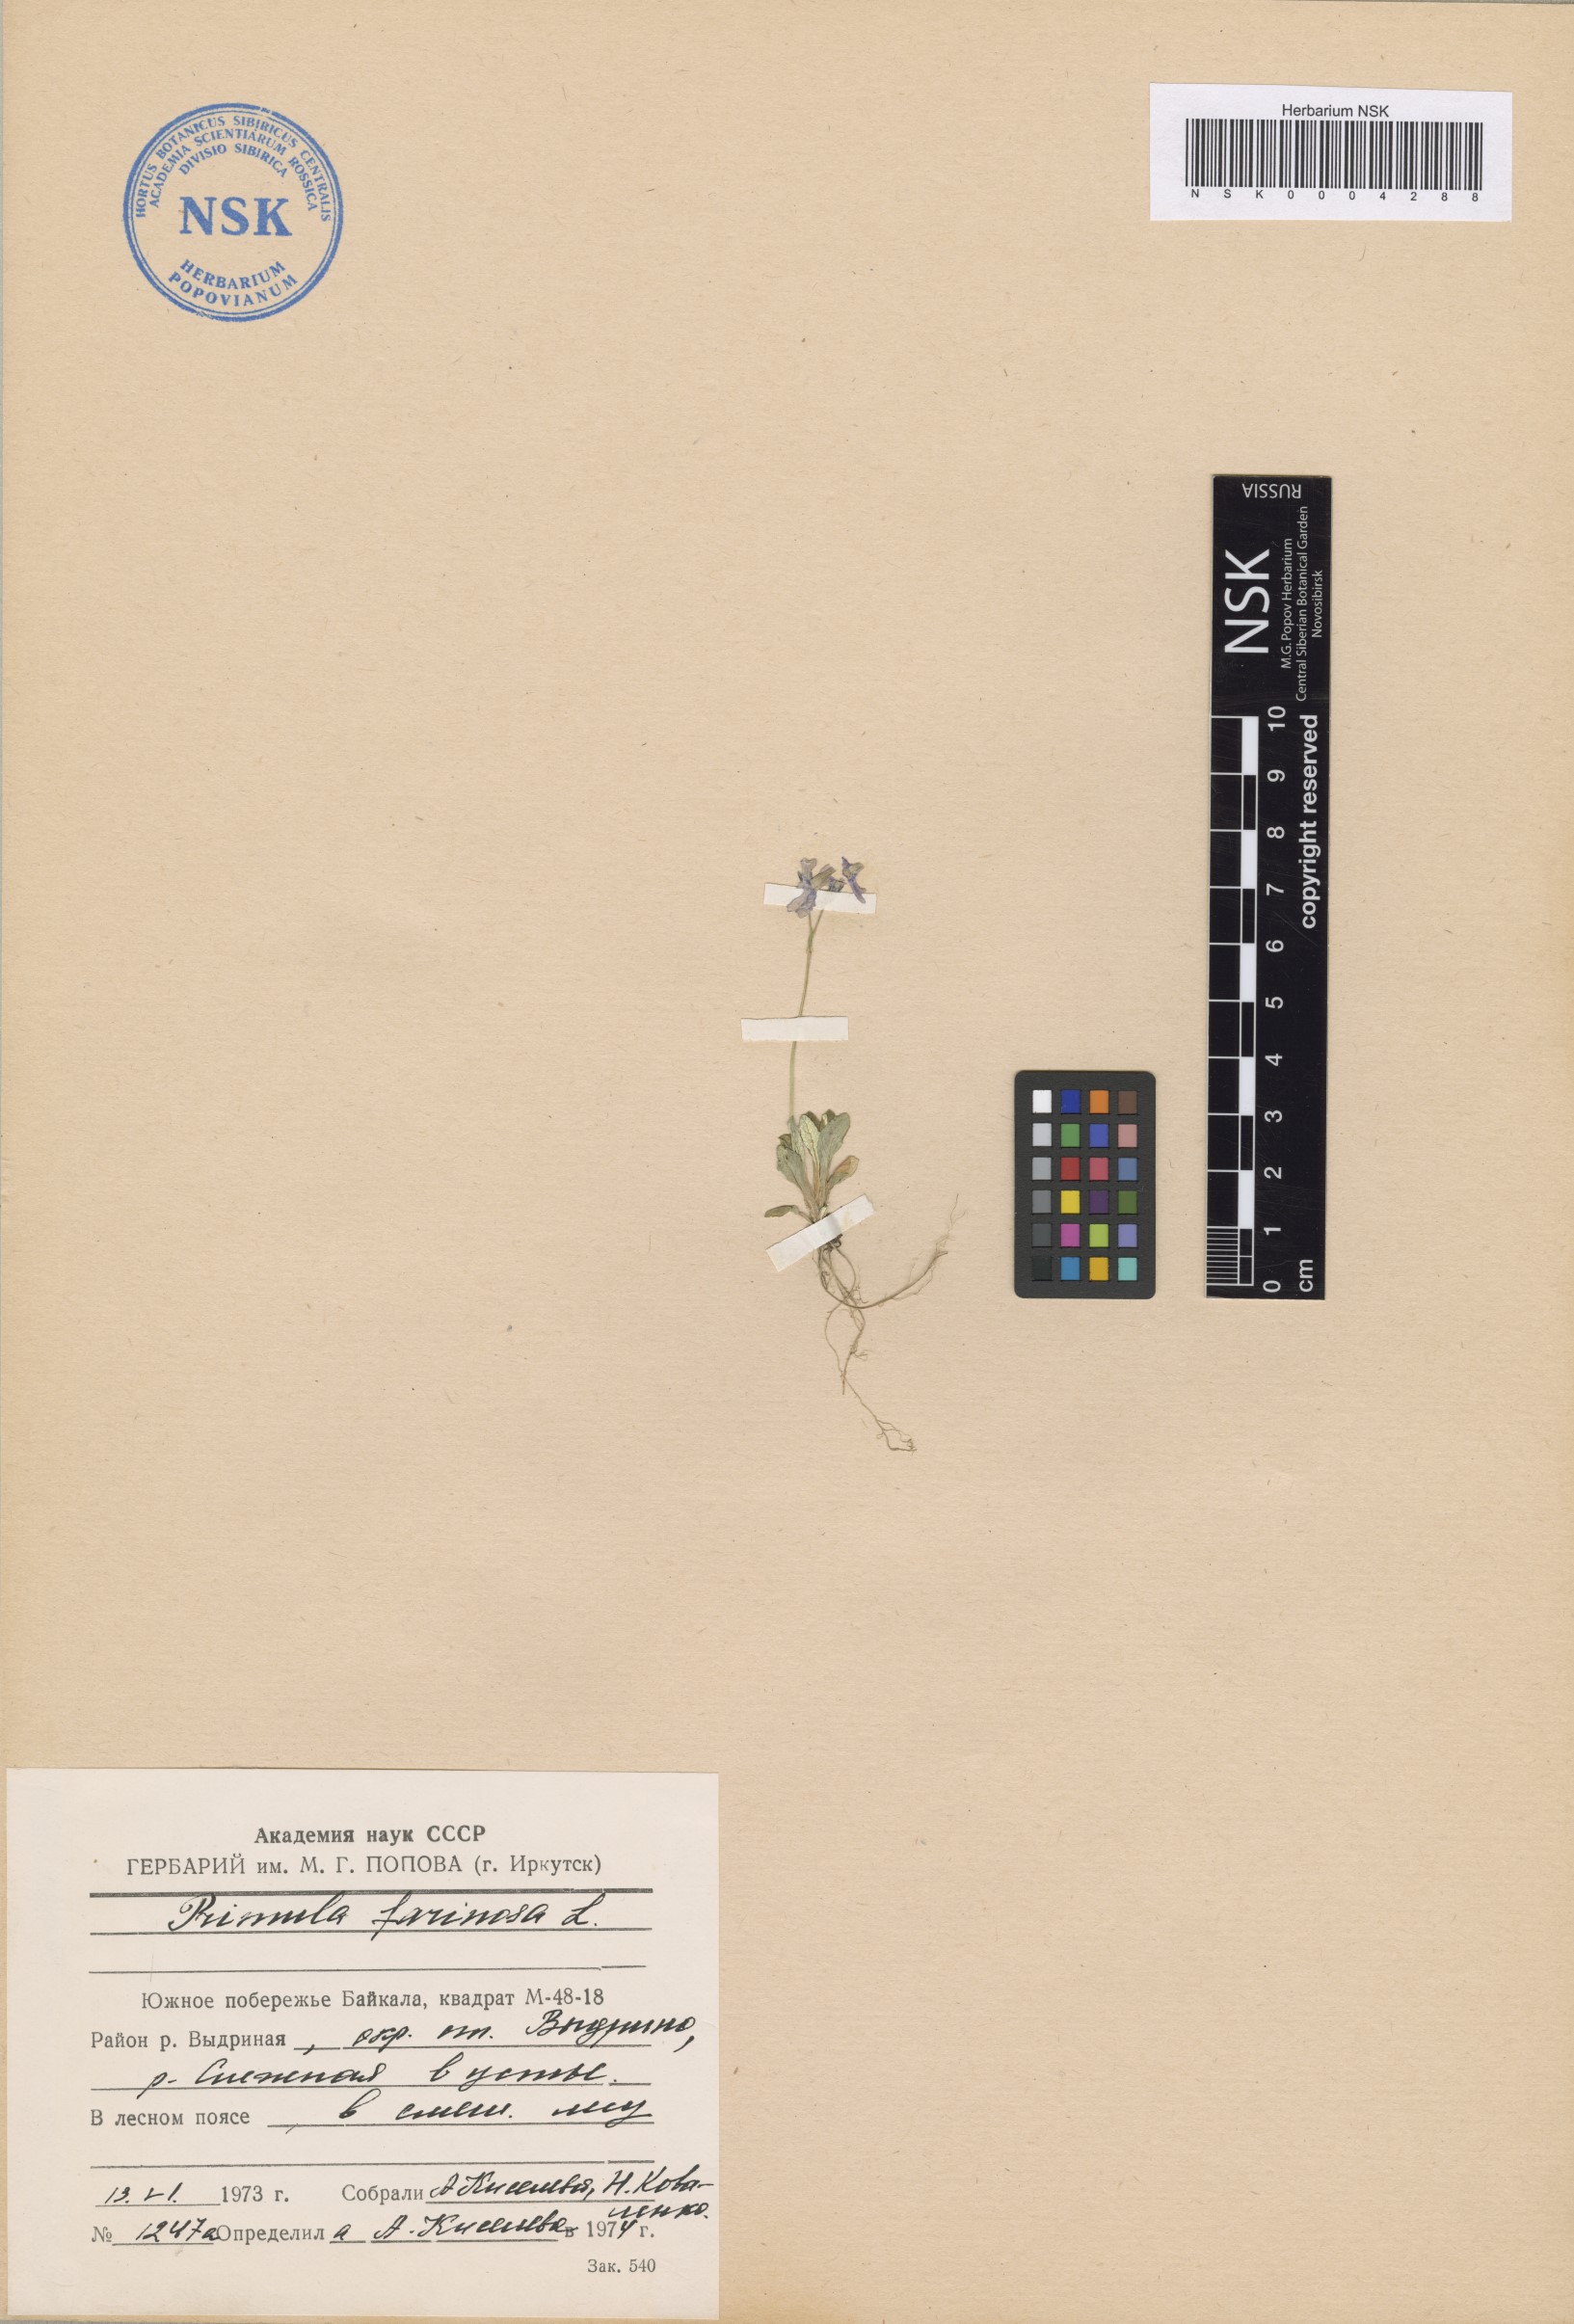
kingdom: Plantae
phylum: Tracheophyta
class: Magnoliopsida
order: Ericales
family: Primulaceae
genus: Primula
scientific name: Primula farinosa
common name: Bird's-eye primrose
